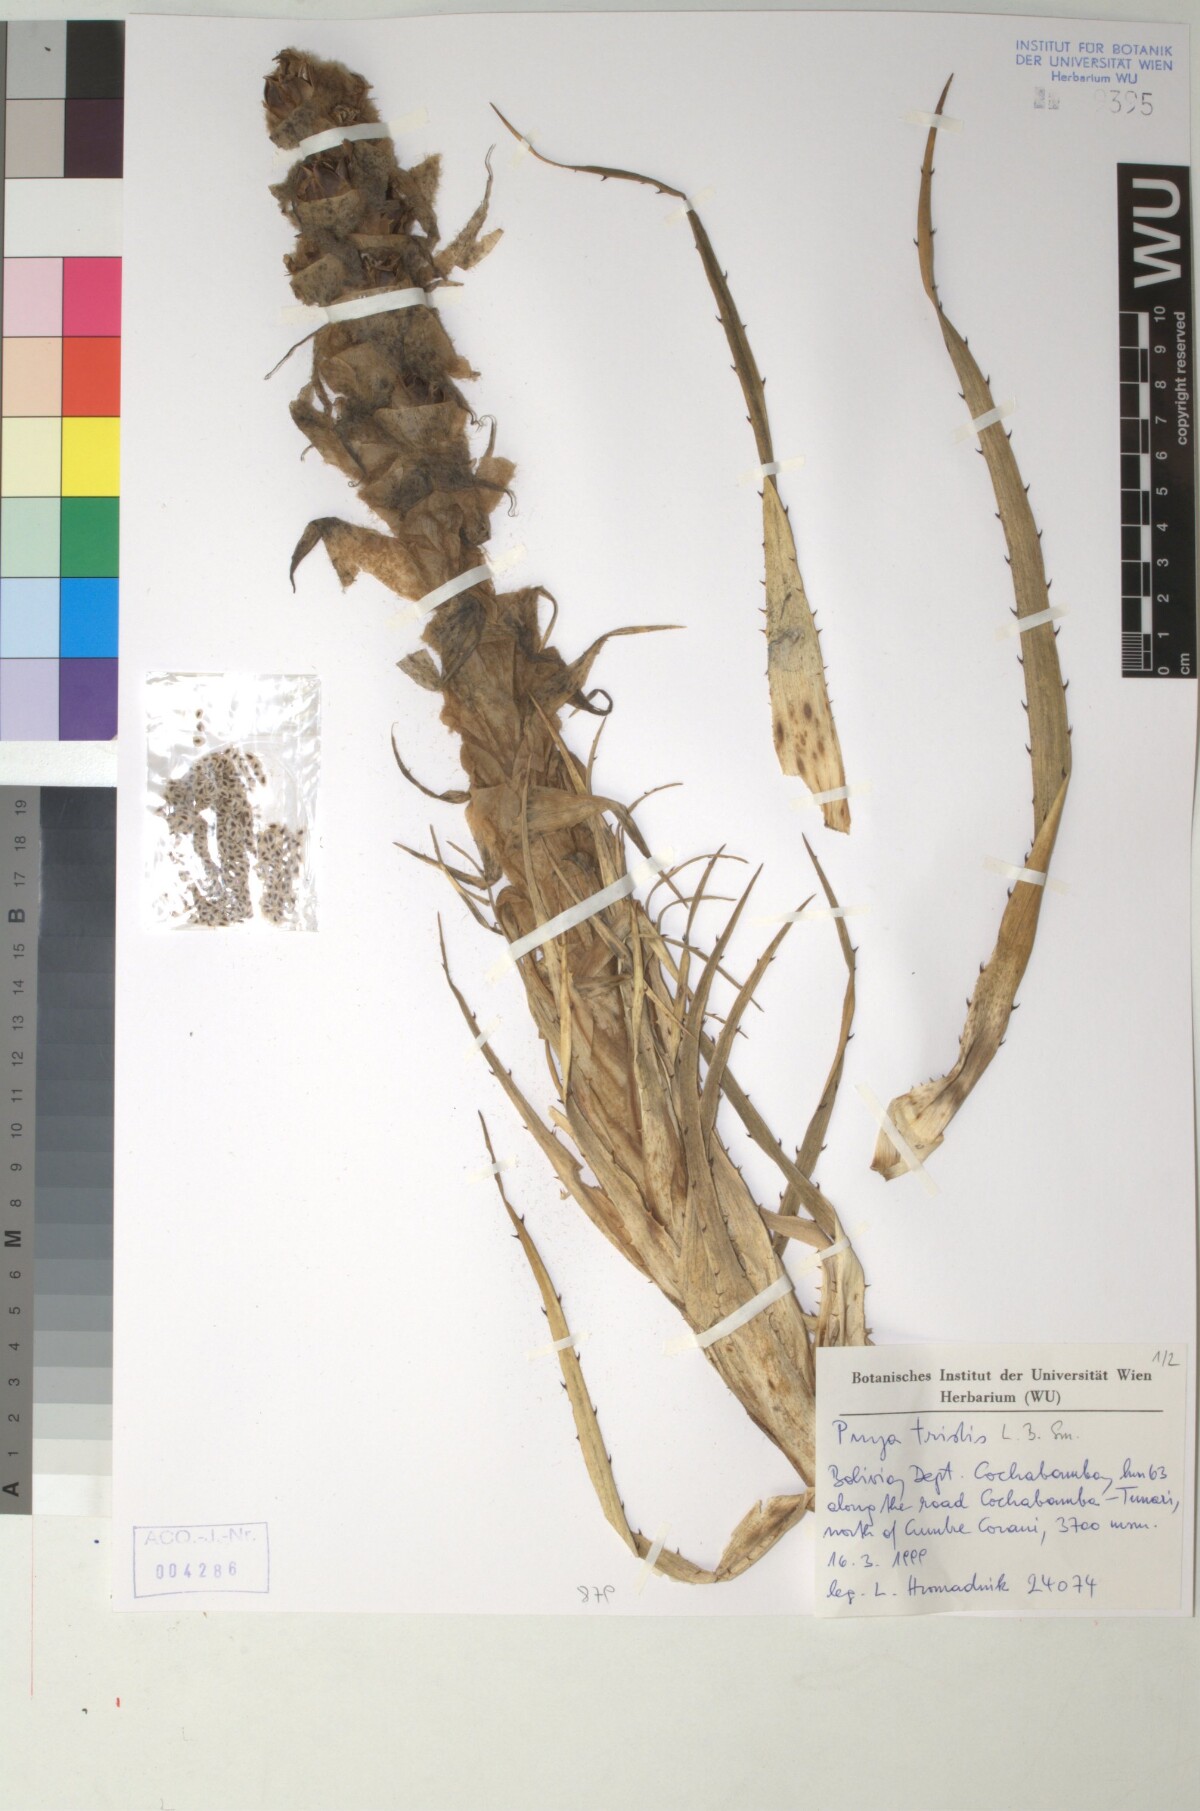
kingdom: Plantae
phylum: Tracheophyta
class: Liliopsida
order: Poales
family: Bromeliaceae
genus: Puya
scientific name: Puya tristis
